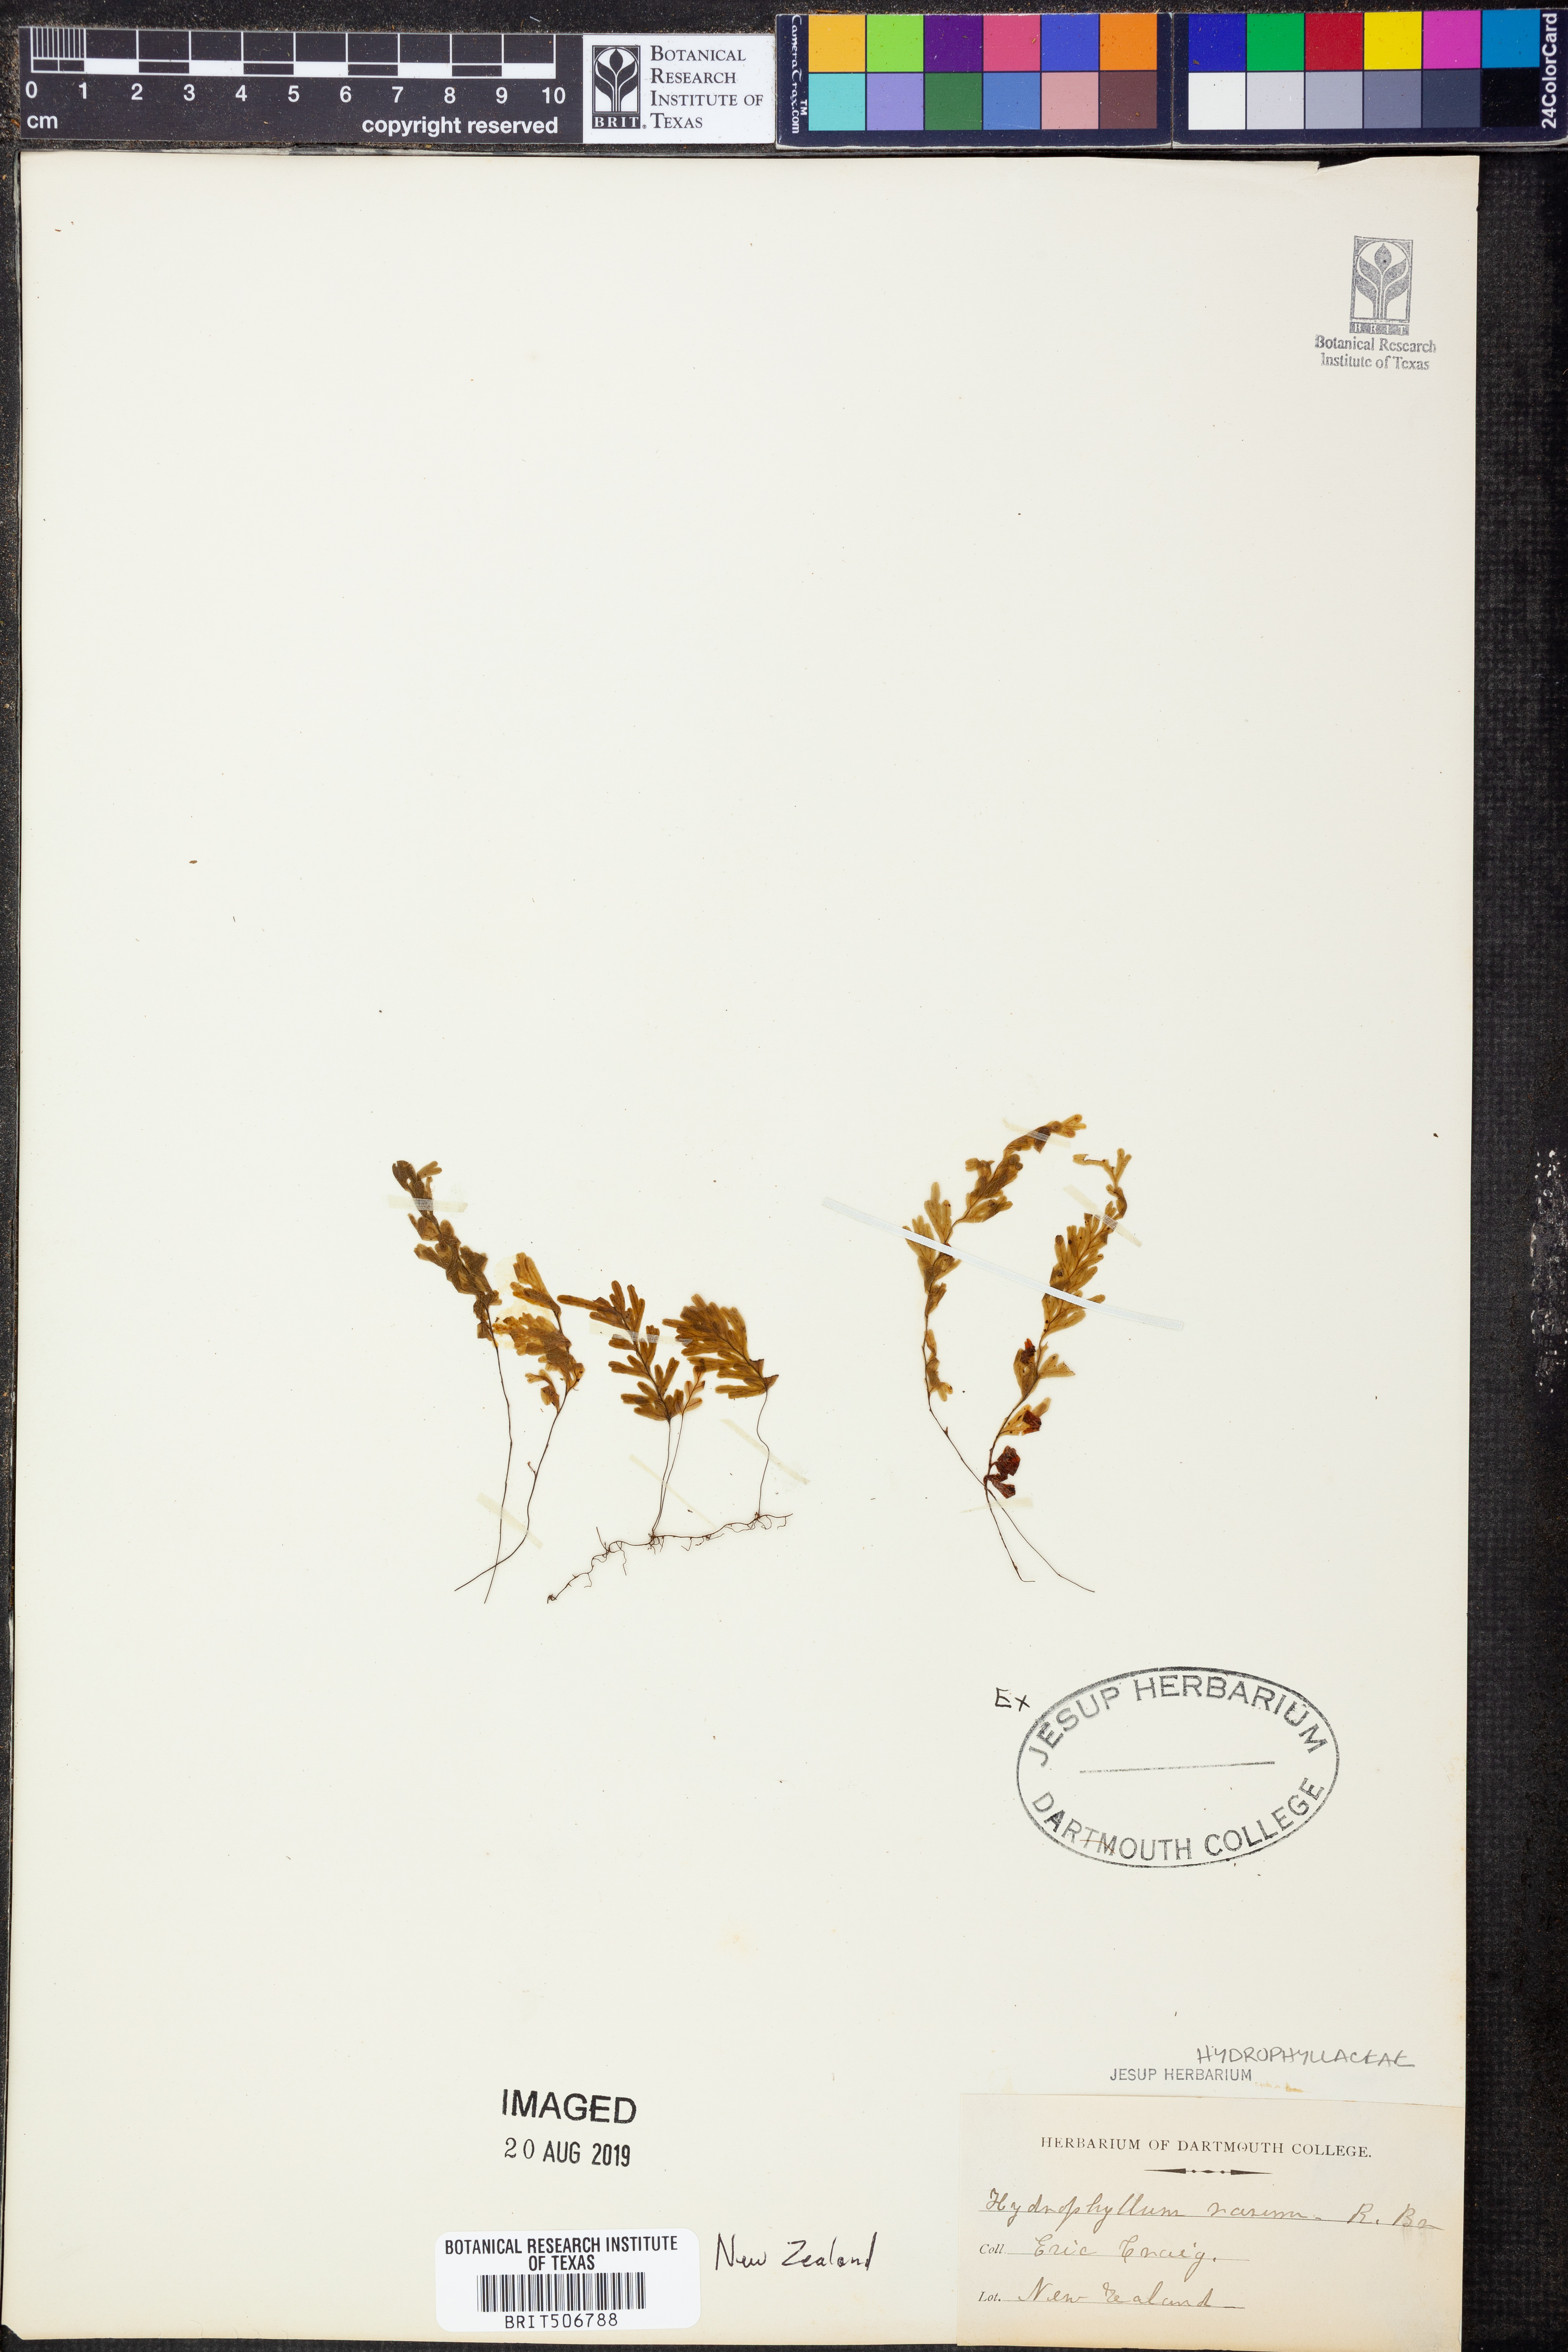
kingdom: Plantae
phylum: Tracheophyta
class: Polypodiopsida
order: Hymenophyllales
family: Hymenophyllaceae
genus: Hymenophyllum
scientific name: Hymenophyllum rarum
